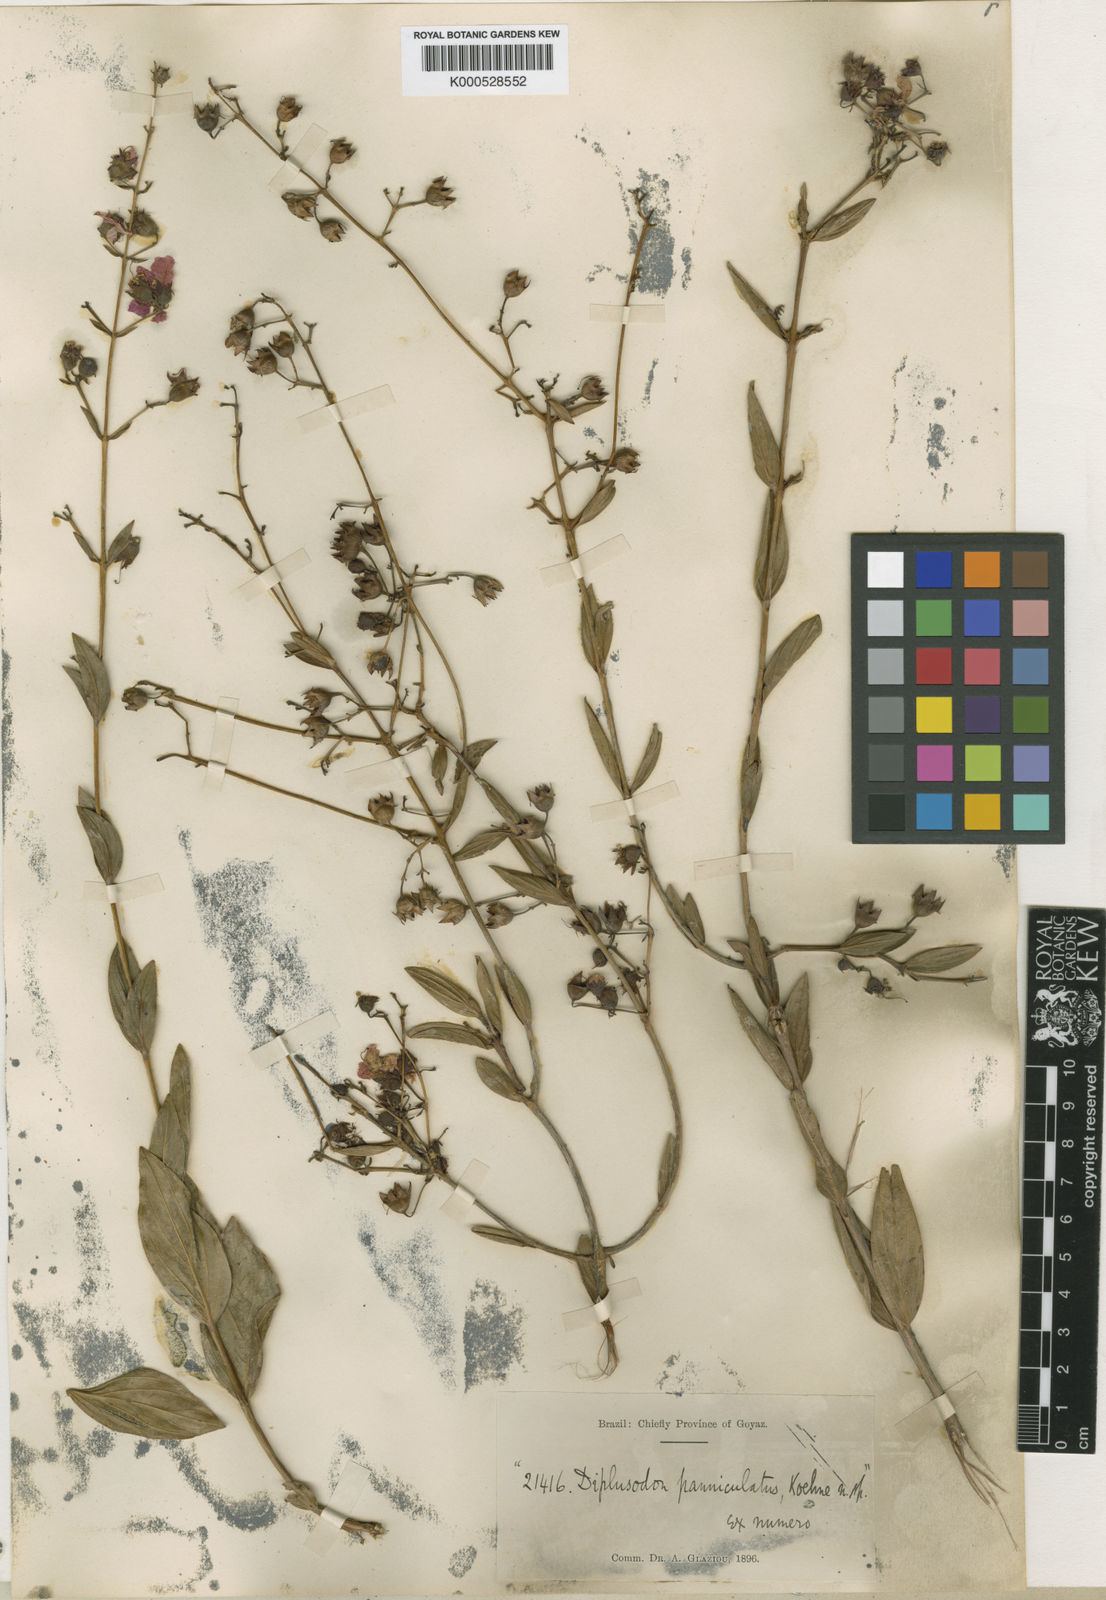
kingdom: Plantae
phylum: Tracheophyta
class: Magnoliopsida
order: Myrtales
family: Lythraceae
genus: Diplusodon
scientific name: Diplusodon panniculatus
